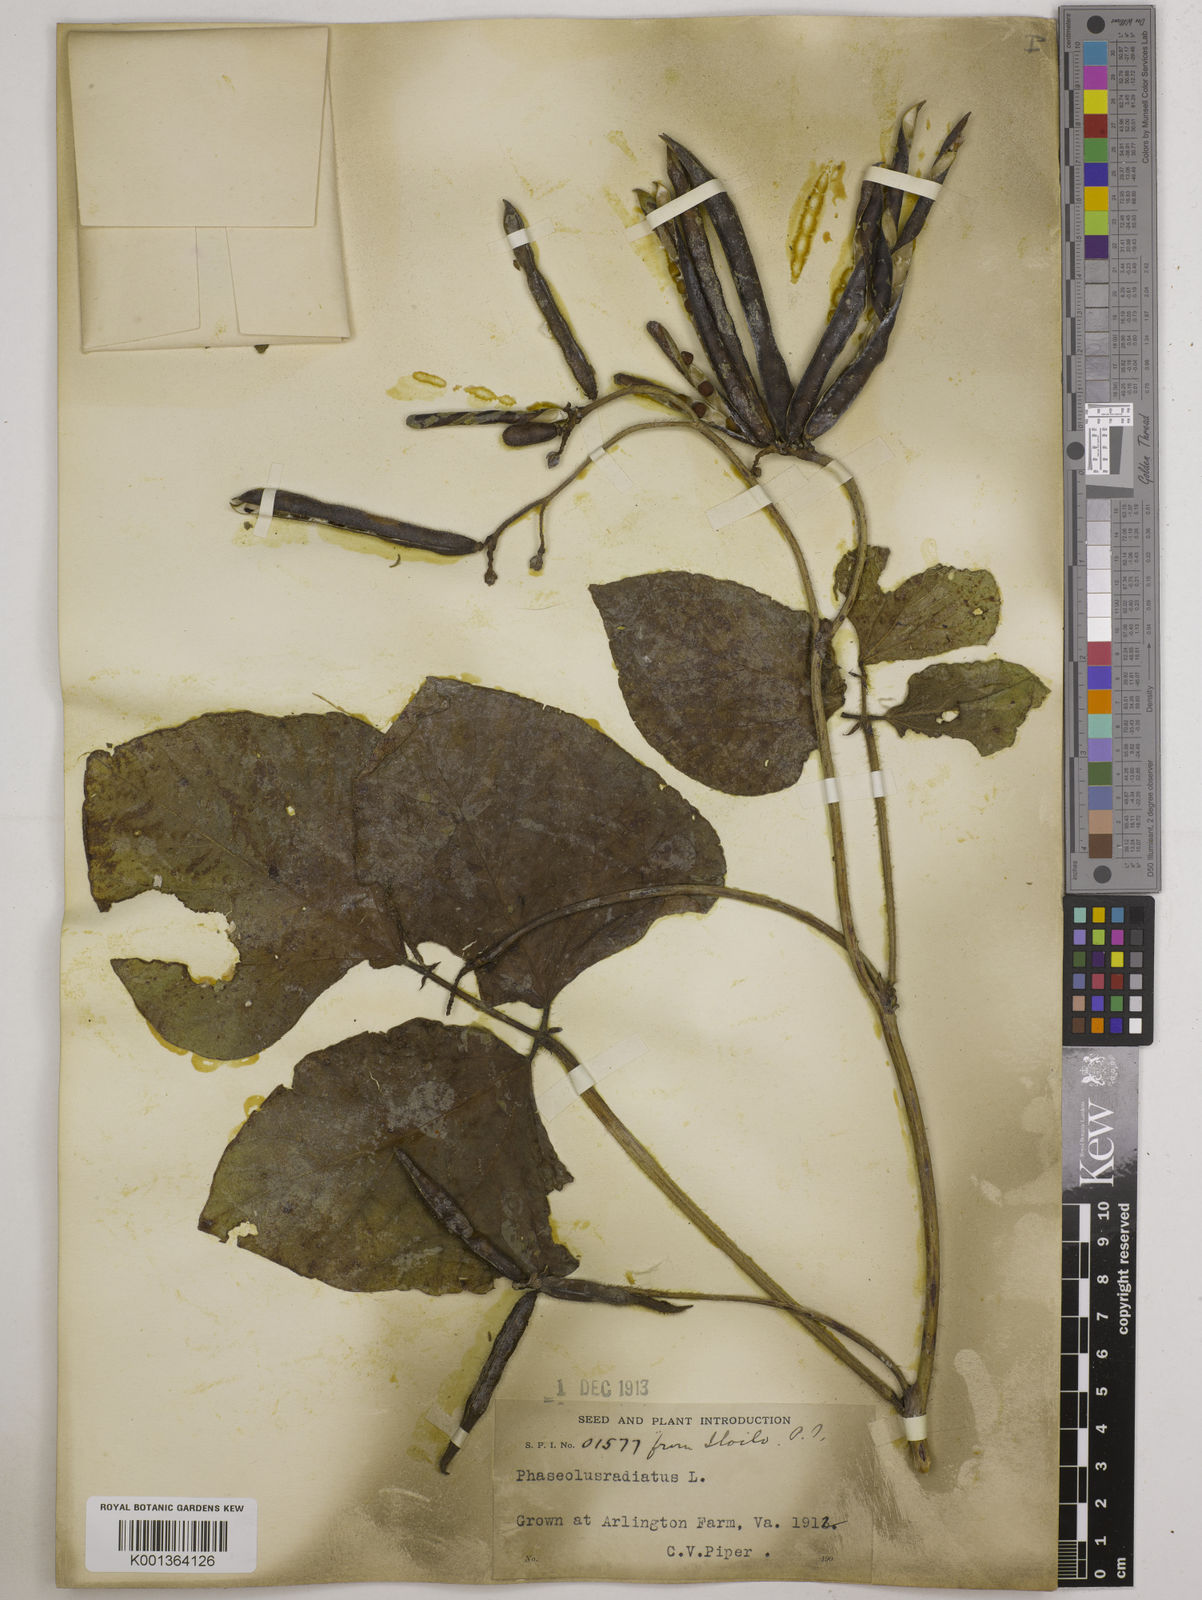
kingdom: Plantae
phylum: Tracheophyta
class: Magnoliopsida
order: Fabales
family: Fabaceae
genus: Vigna
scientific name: Vigna radiata
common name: Mung-bean
